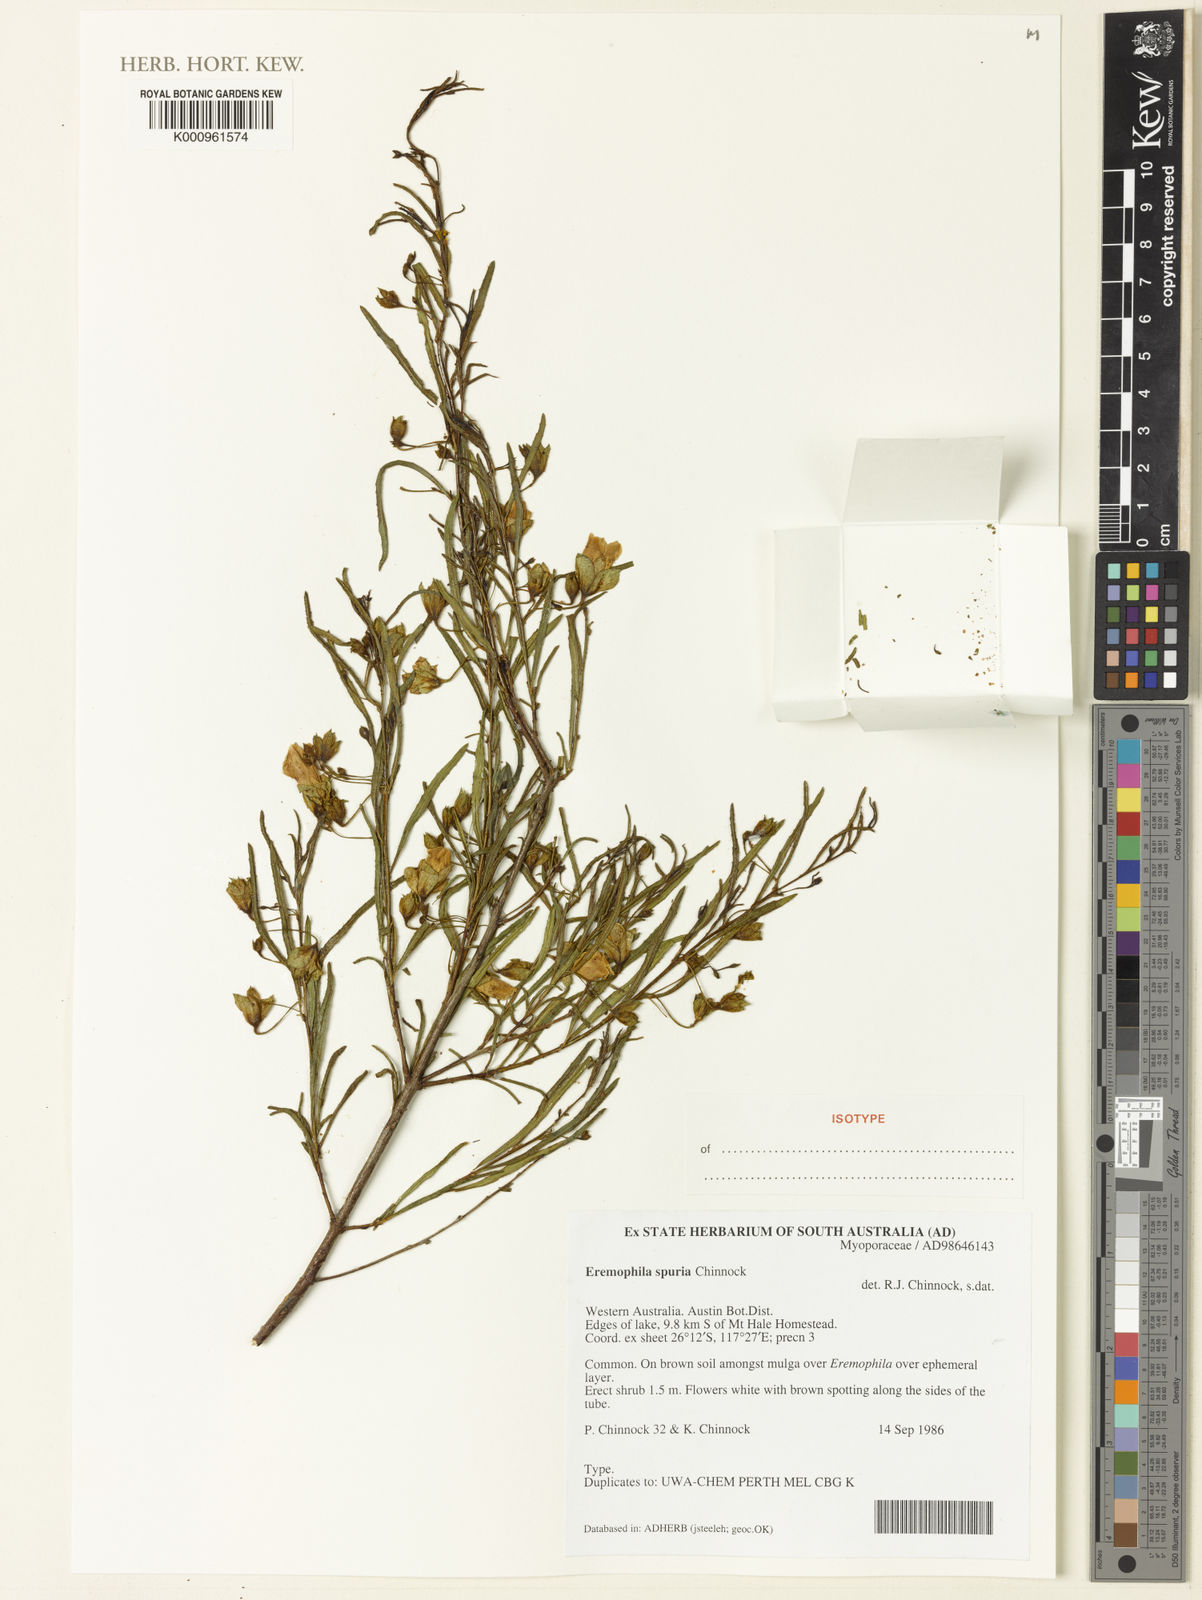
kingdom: Plantae
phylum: Tracheophyta
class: Magnoliopsida
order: Lamiales
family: Scrophulariaceae
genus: Eremophila
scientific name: Eremophila spuria
